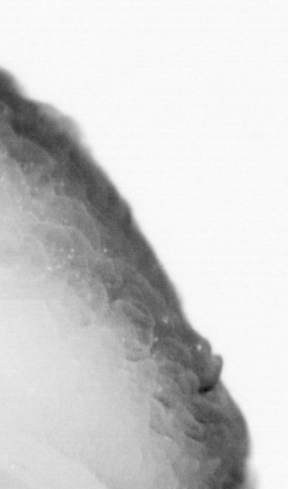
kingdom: Animalia
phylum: Chordata
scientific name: Chordata
